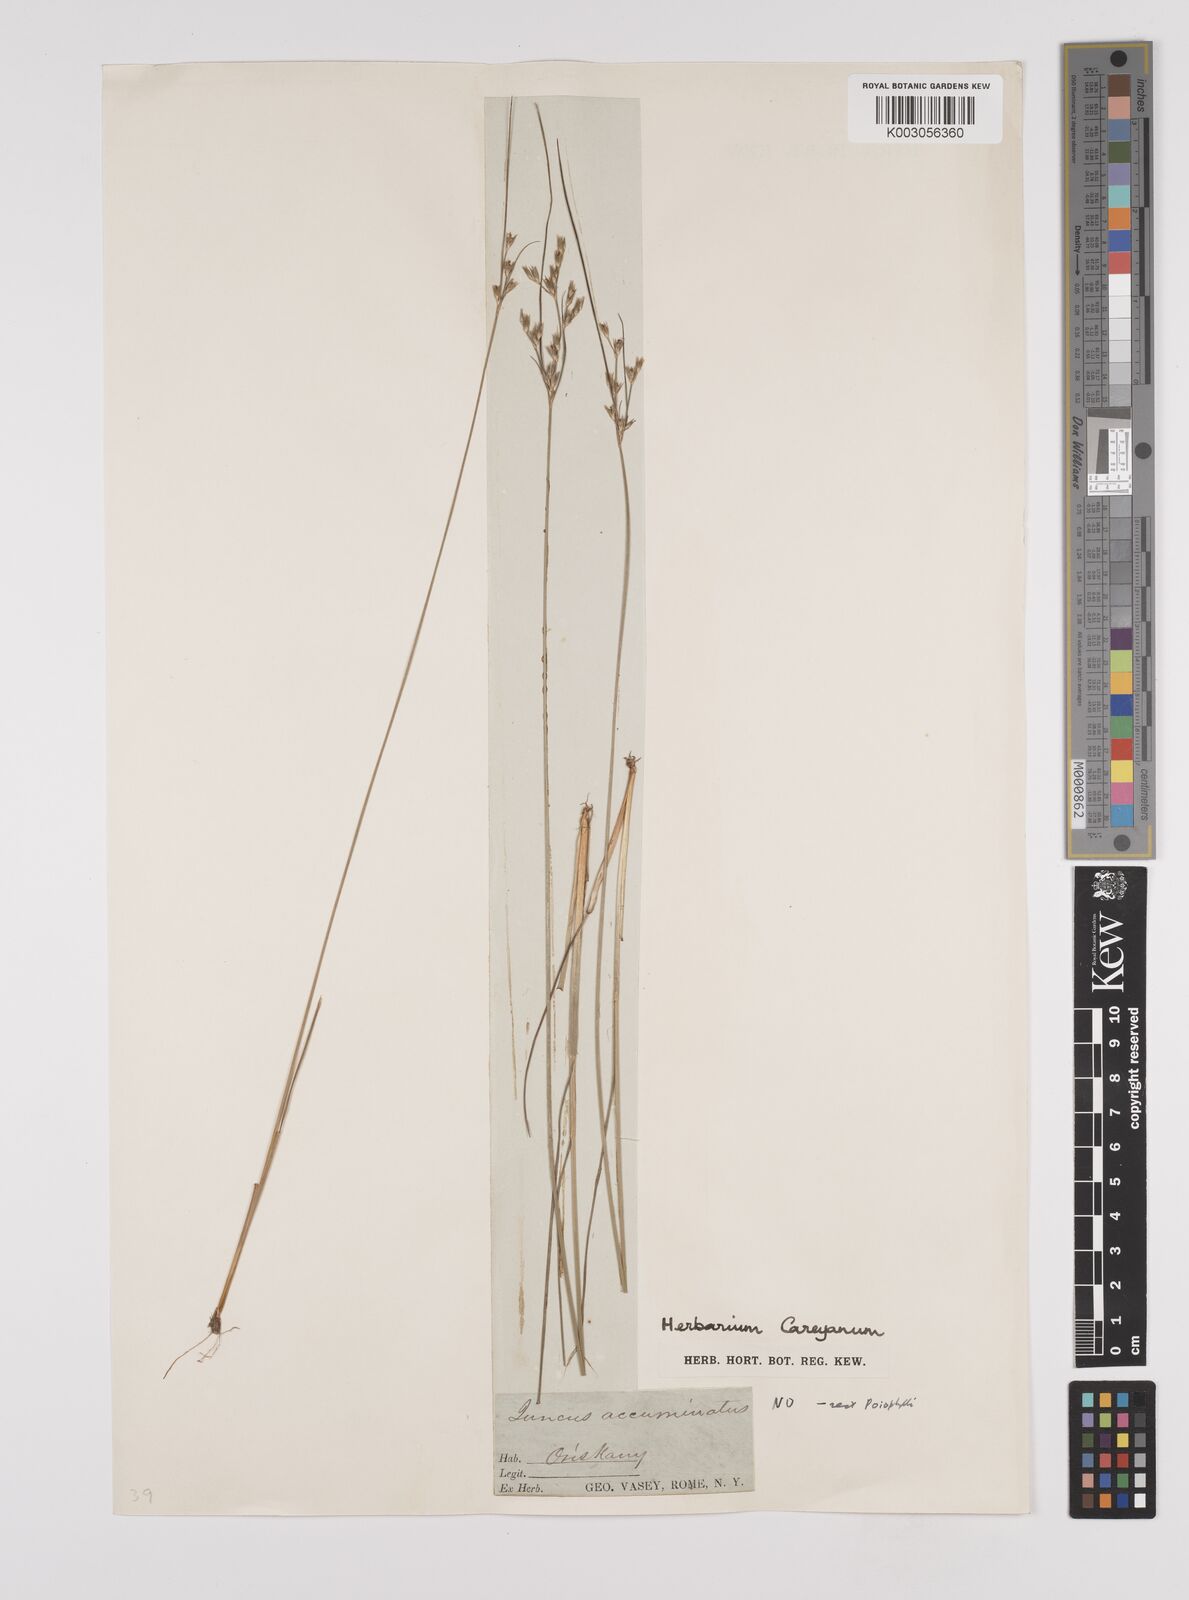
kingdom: Plantae
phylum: Tracheophyta
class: Liliopsida
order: Poales
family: Juncaceae
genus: Juncus
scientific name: Juncus tenuis
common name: Slender rush
